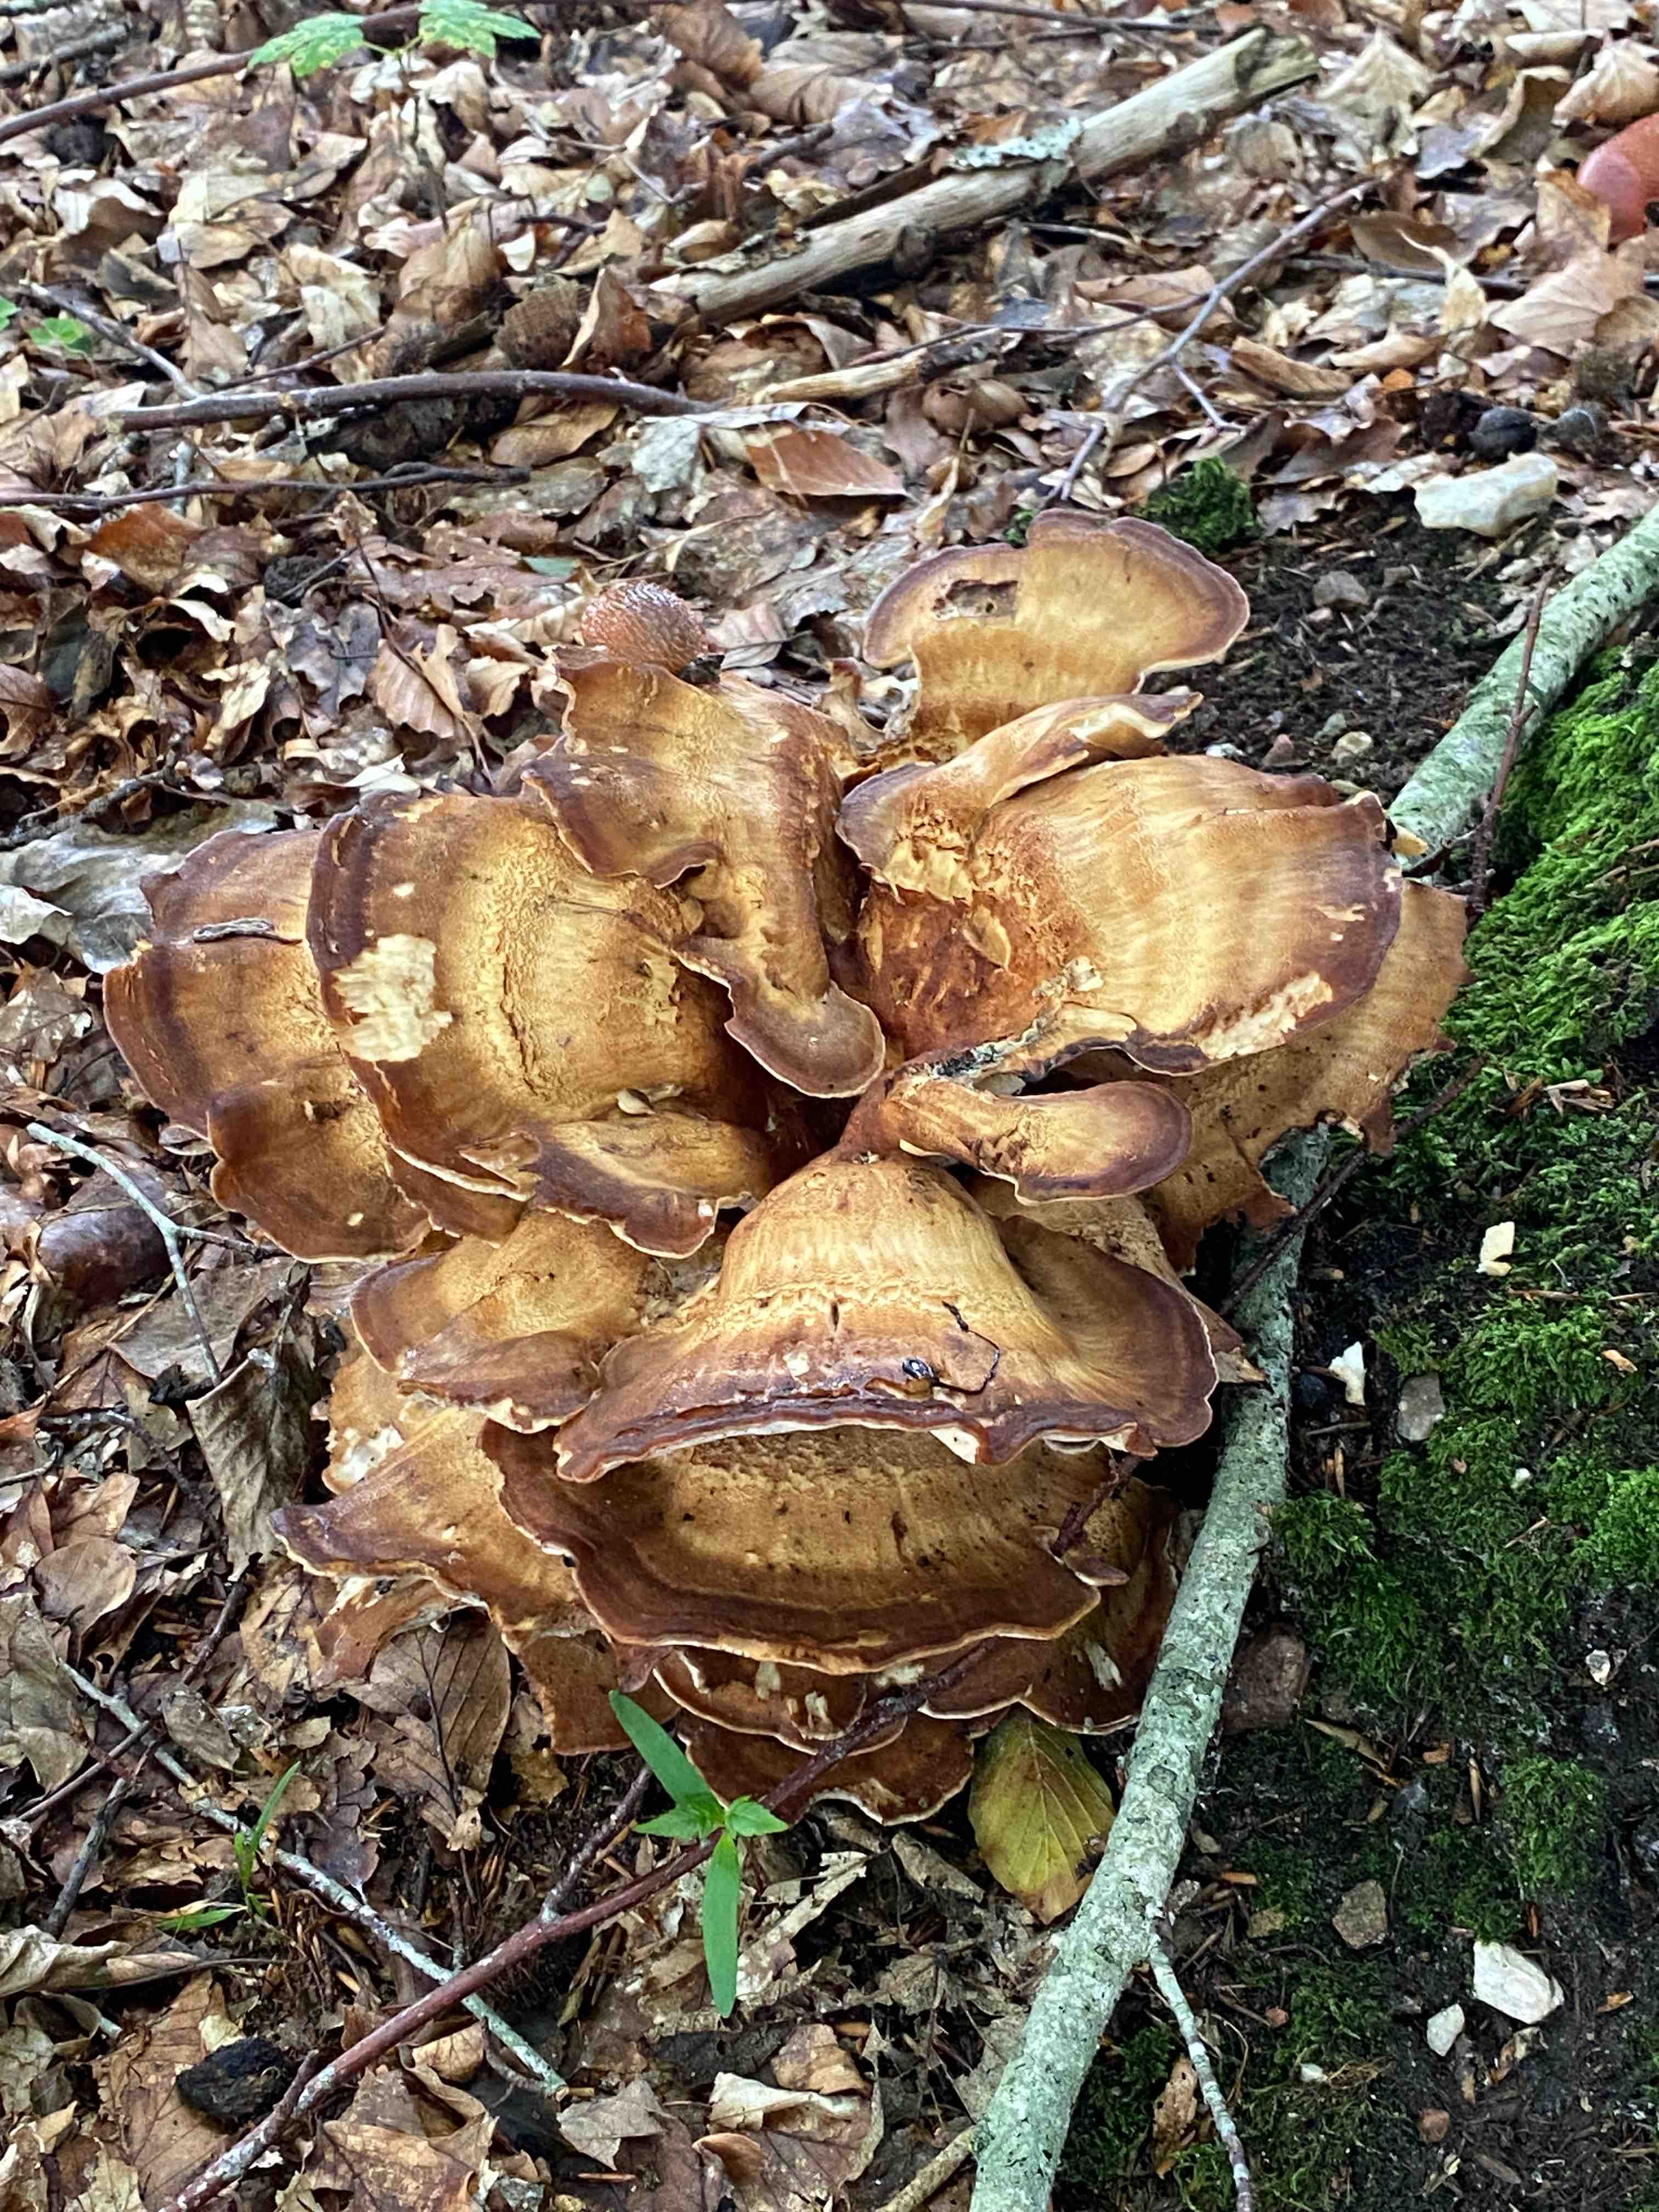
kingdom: Fungi
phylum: Basidiomycota
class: Agaricomycetes
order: Polyporales
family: Meripilaceae
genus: Meripilus
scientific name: Meripilus giganteus
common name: kæmpeporesvamp
